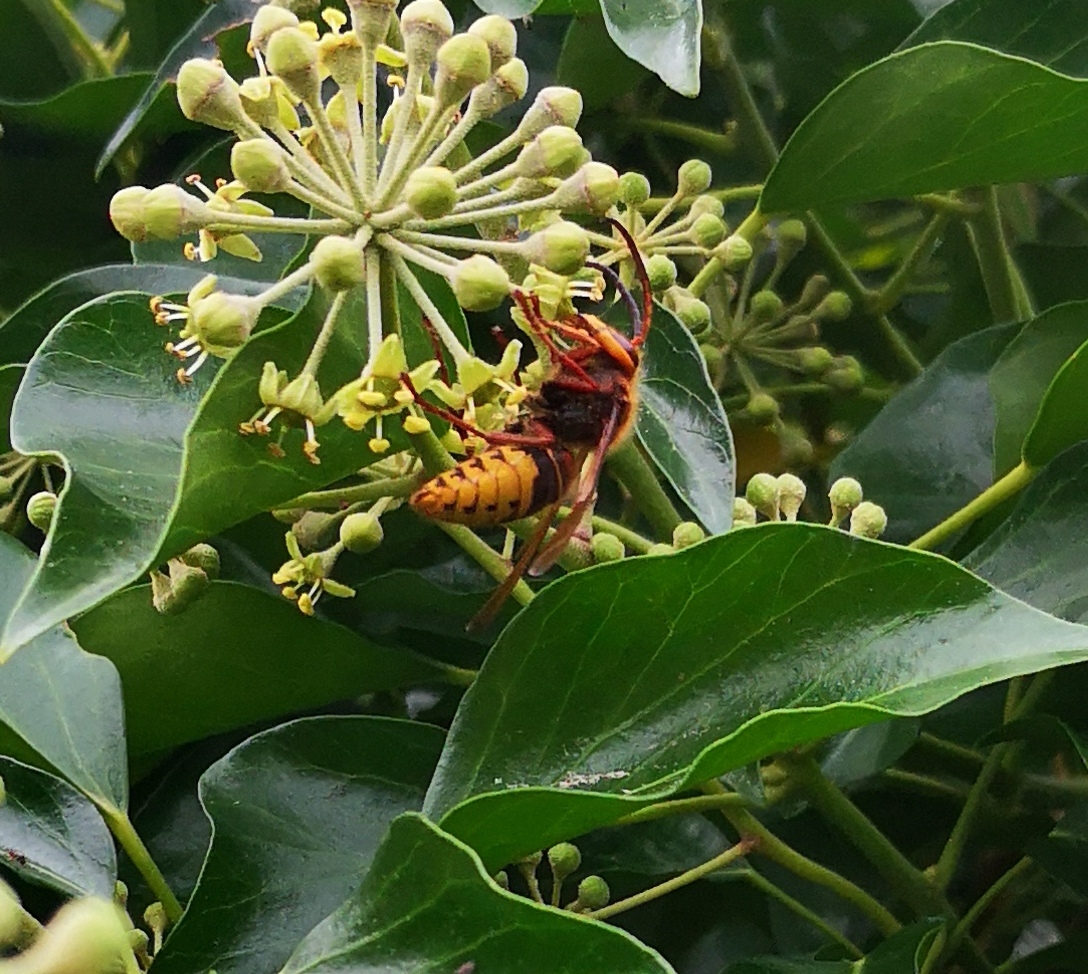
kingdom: Animalia
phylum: Arthropoda
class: Insecta
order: Hymenoptera
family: Vespidae
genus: Vespa
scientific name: Vespa crabro
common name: Stor gedehams
